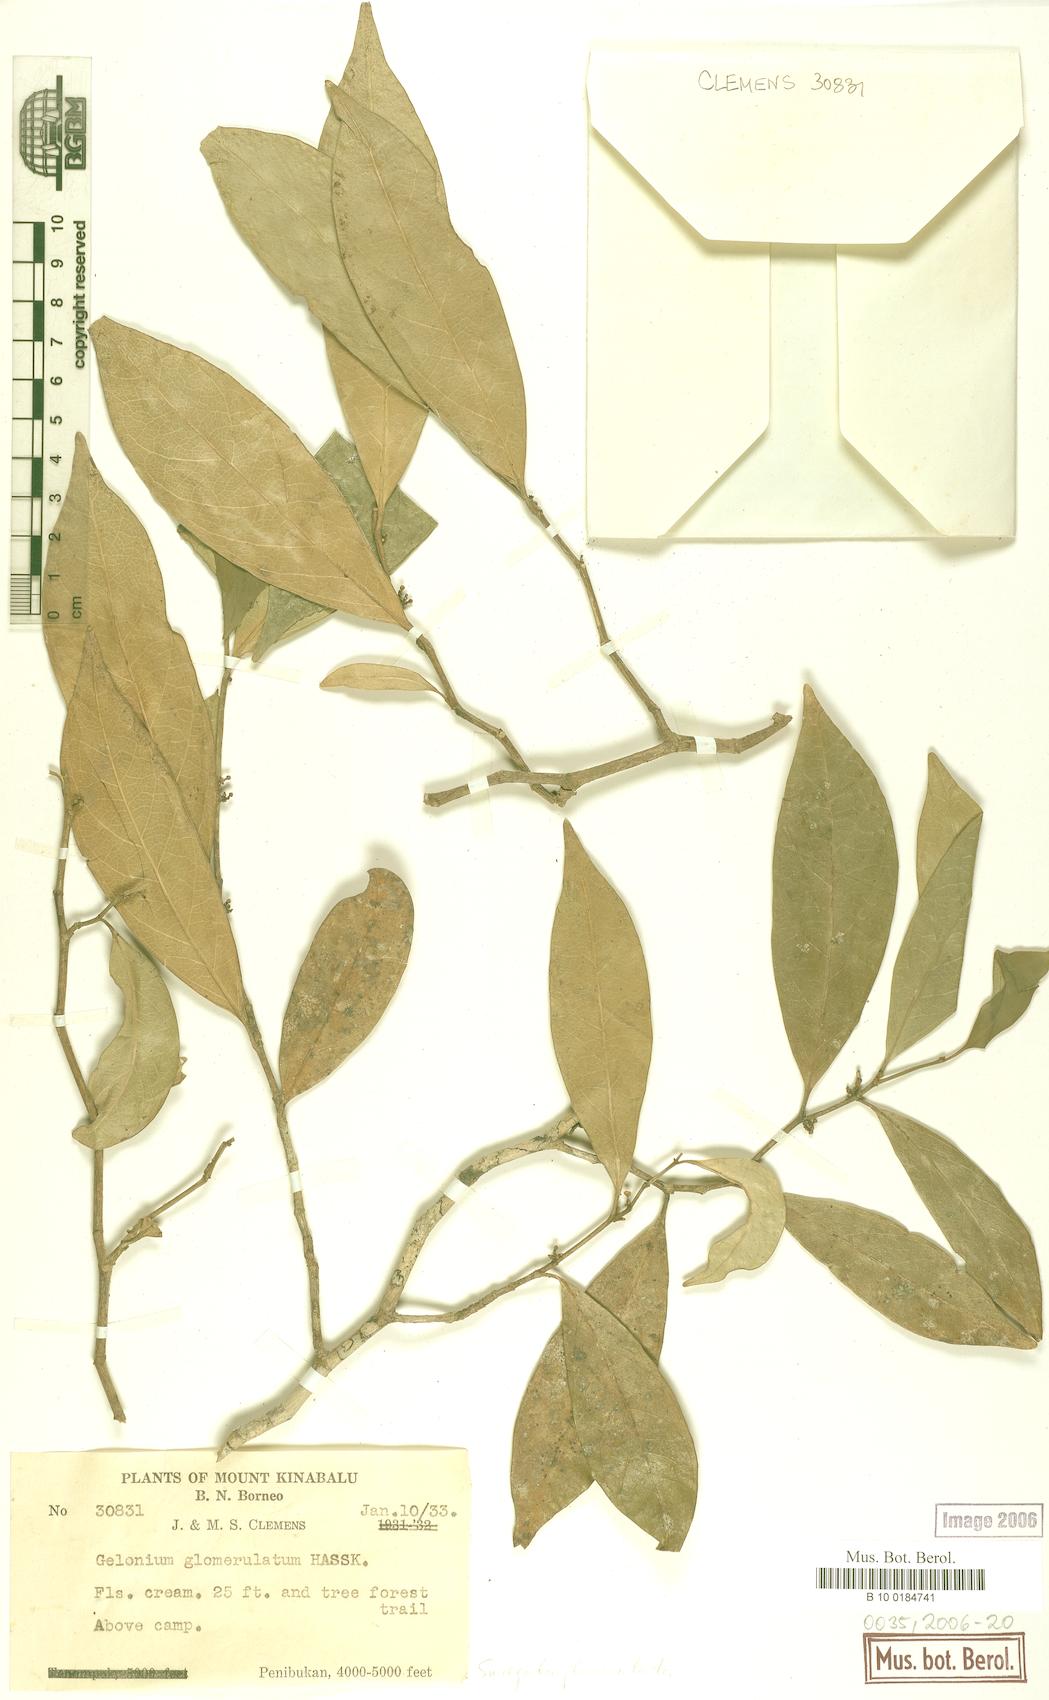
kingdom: Plantae
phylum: Tracheophyta
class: Magnoliopsida
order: Malpighiales
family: Euphorbiaceae
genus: Suregada
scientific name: Suregada glomerulata
